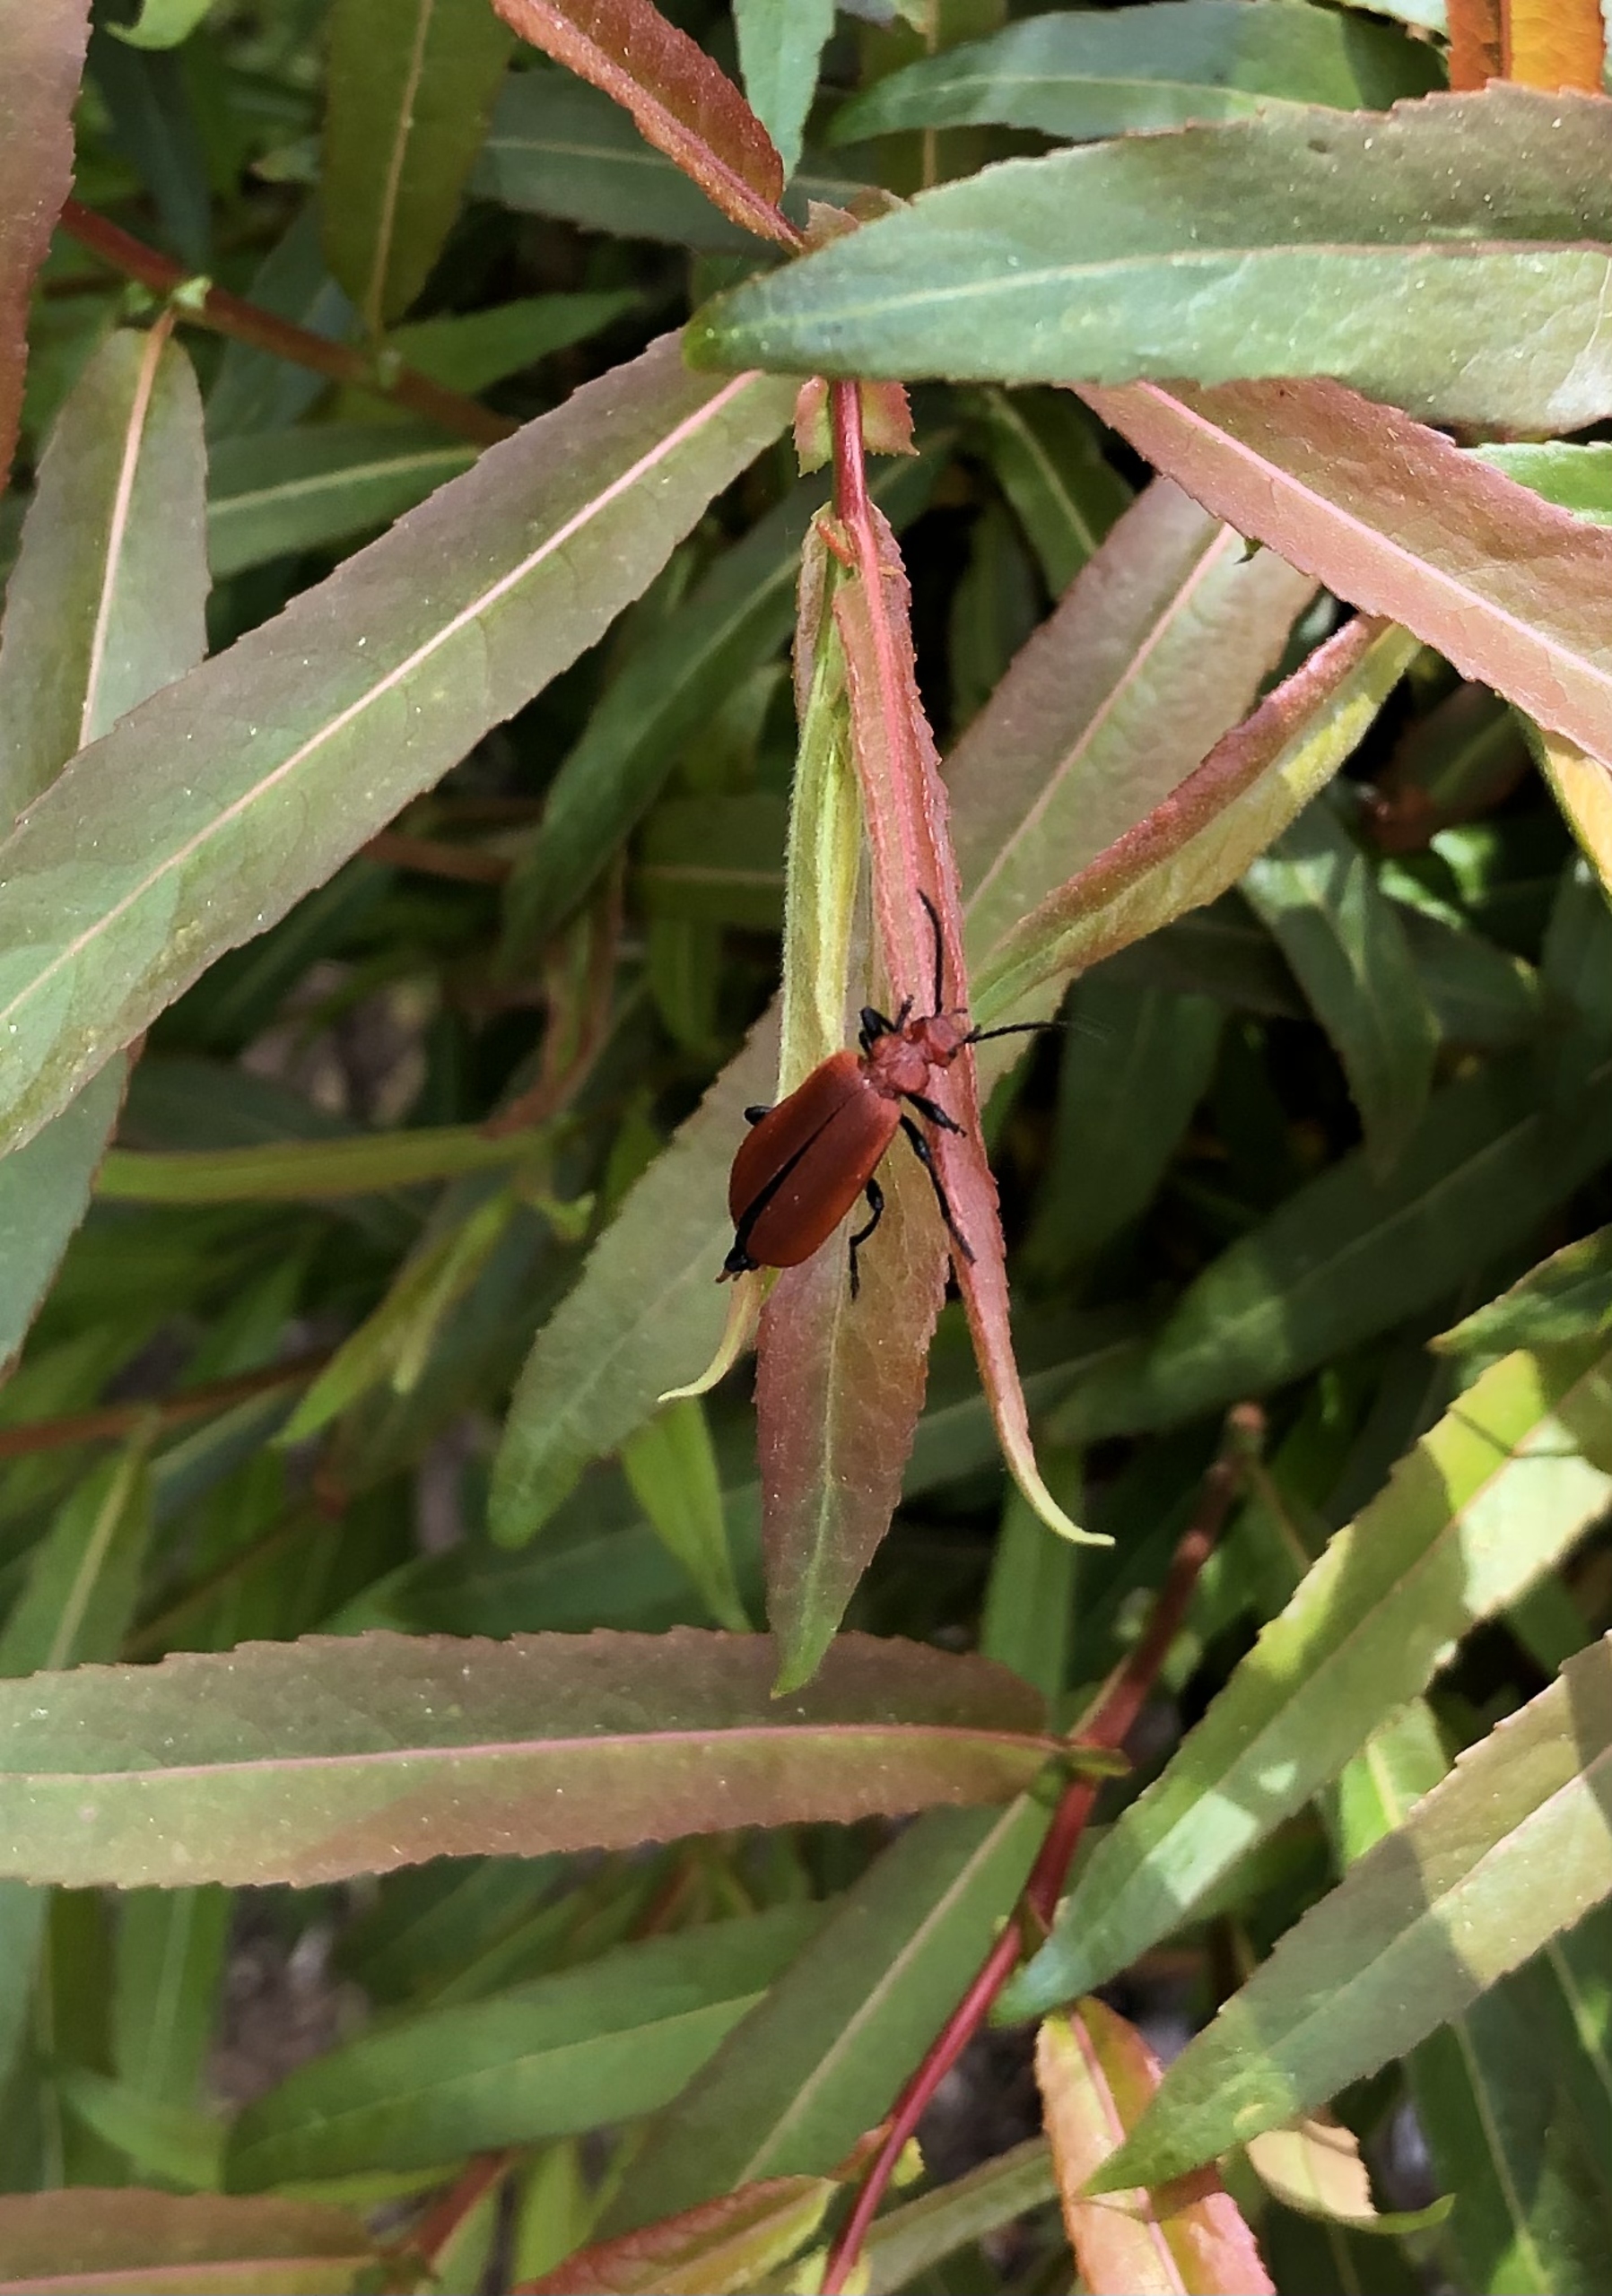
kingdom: Animalia
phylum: Arthropoda
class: Insecta
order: Coleoptera
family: Pyrochroidae
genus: Pyrochroa
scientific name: Pyrochroa serraticornis
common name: Rødhovedet kardinalbille
